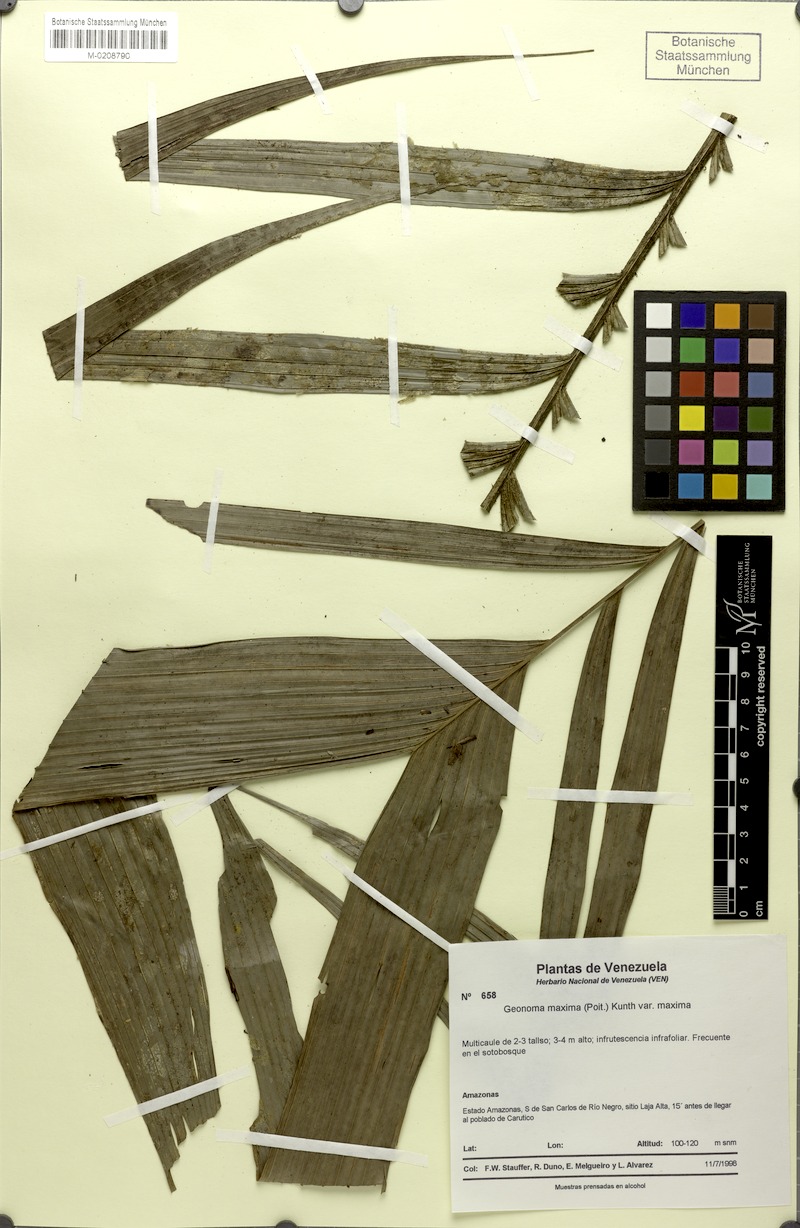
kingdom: Plantae
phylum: Tracheophyta
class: Liliopsida
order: Arecales
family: Arecaceae
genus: Geonoma
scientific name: Geonoma maxima
